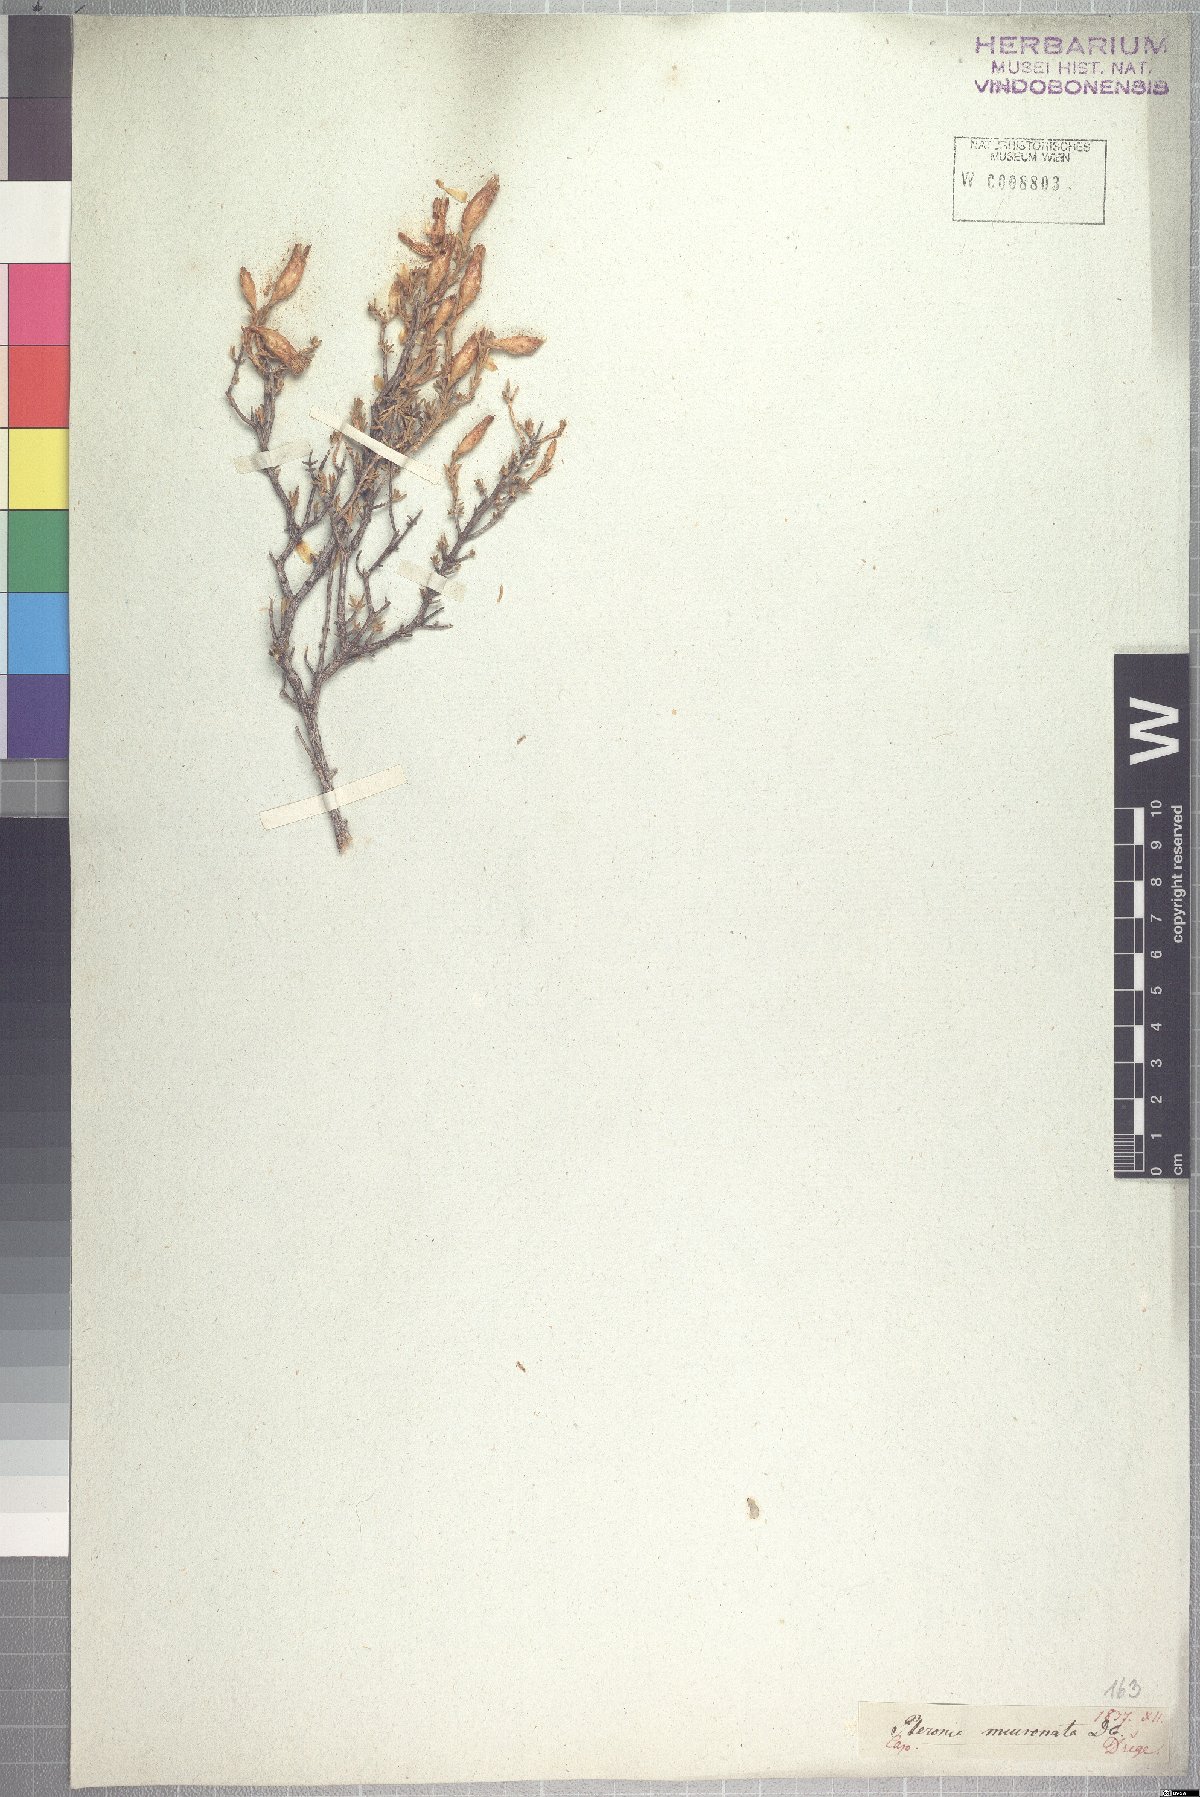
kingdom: Plantae
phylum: Tracheophyta
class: Magnoliopsida
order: Asterales
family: Asteraceae
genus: Pteronia
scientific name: Pteronia mucronata
